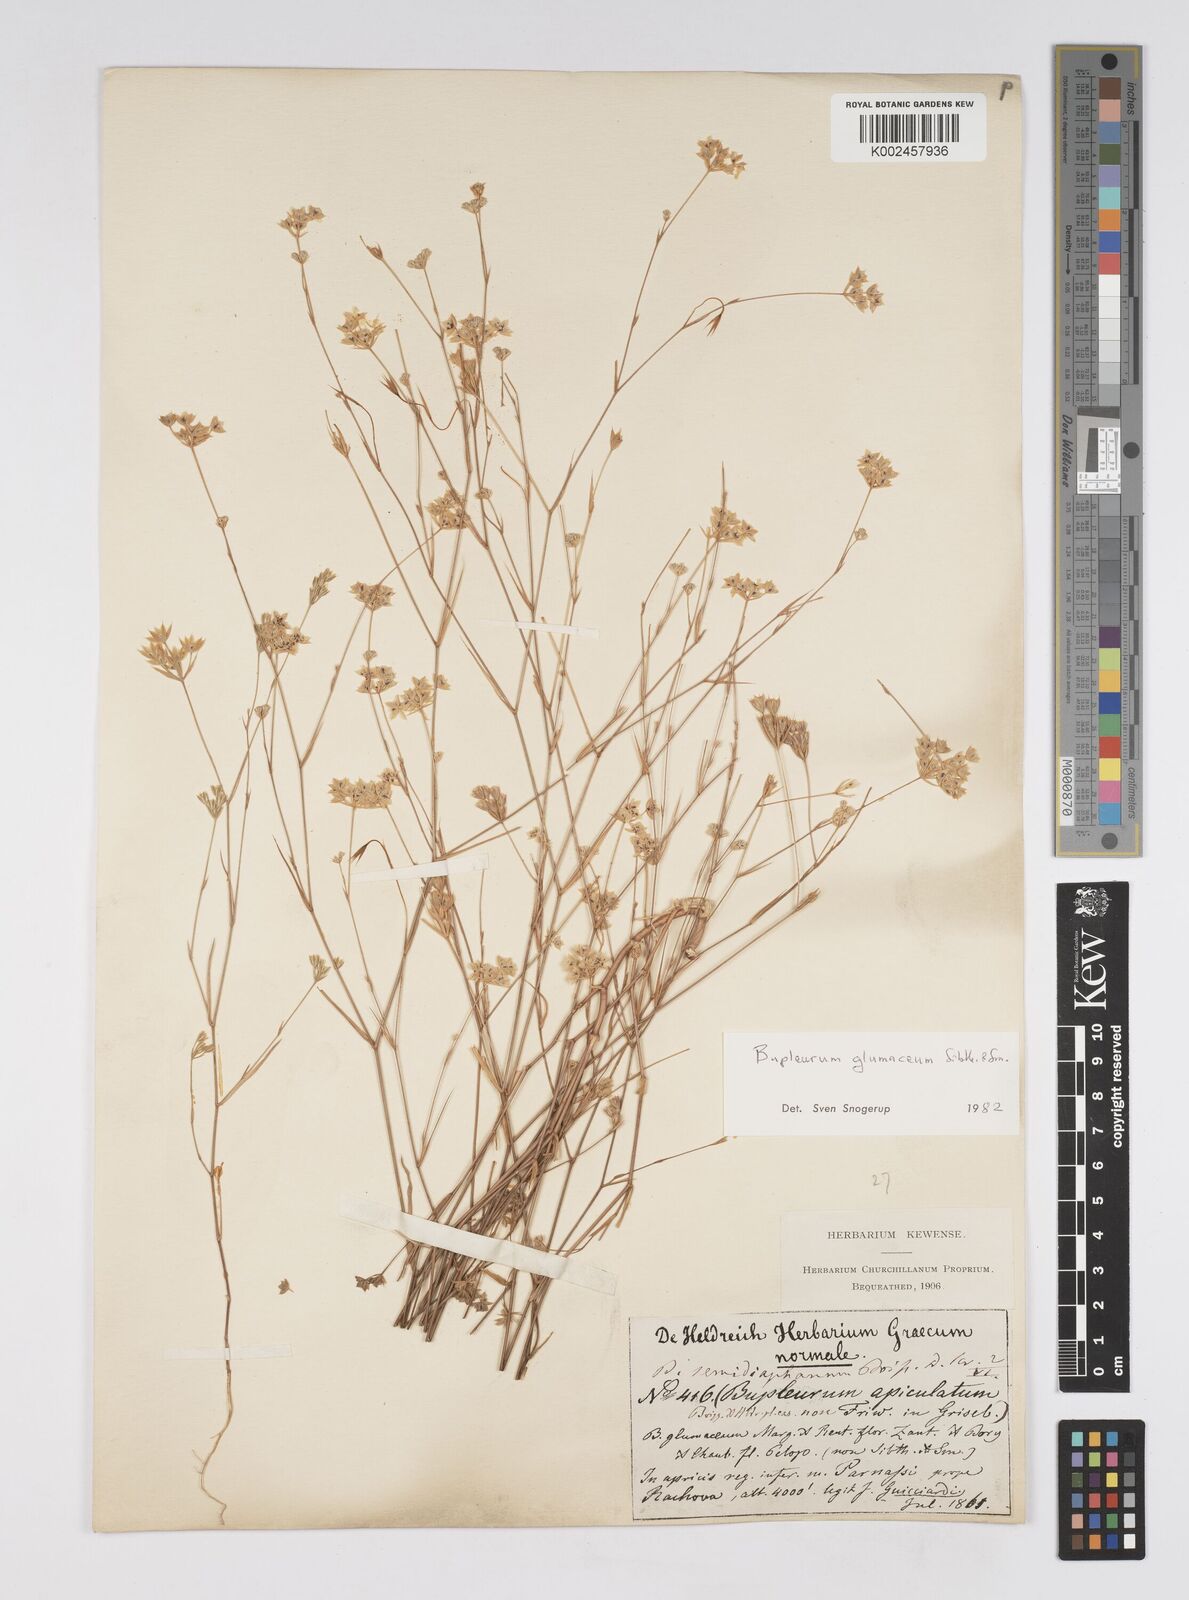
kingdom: Plantae
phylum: Tracheophyta
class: Magnoliopsida
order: Apiales
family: Apiaceae
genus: Bupleurum
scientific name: Bupleurum glumaceum
